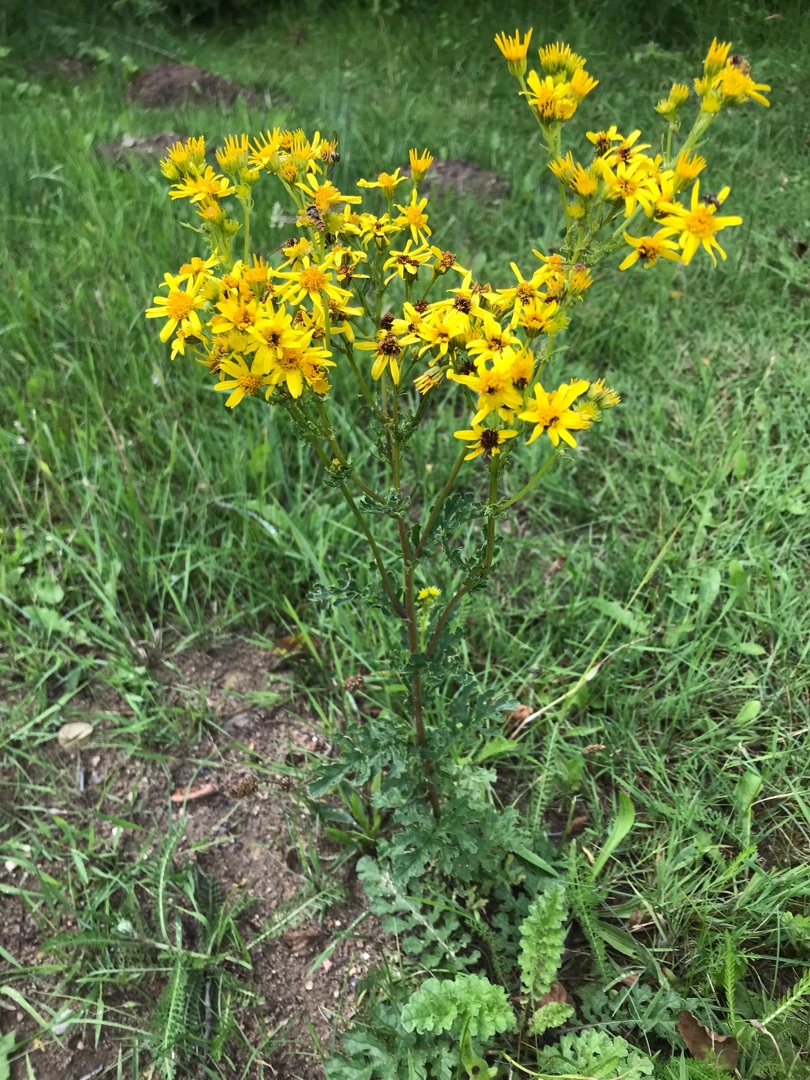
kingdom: Plantae
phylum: Tracheophyta
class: Magnoliopsida
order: Asterales
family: Asteraceae
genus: Jacobaea
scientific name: Jacobaea vulgaris
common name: Eng-brandbæger
